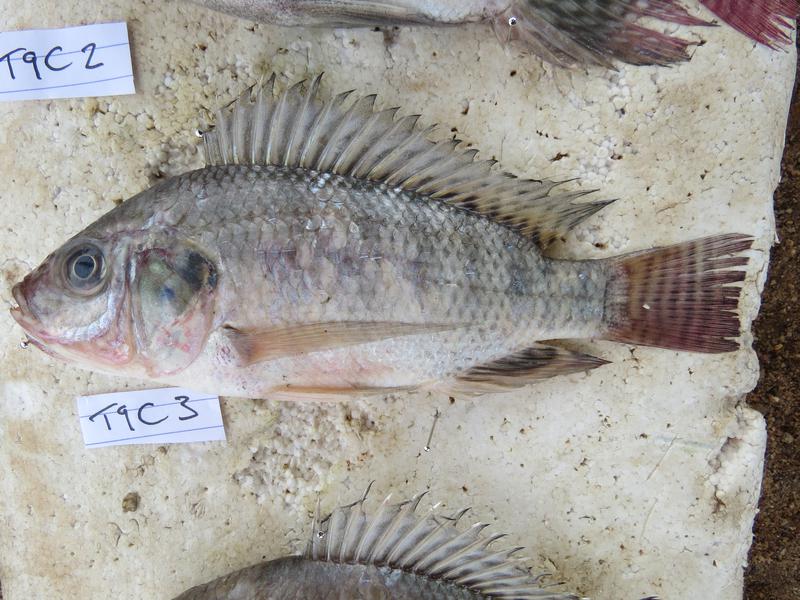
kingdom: Animalia
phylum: Chordata
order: Perciformes
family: Cichlidae
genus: Oreochromis
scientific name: Oreochromis niloticus
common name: Nile tilapia
